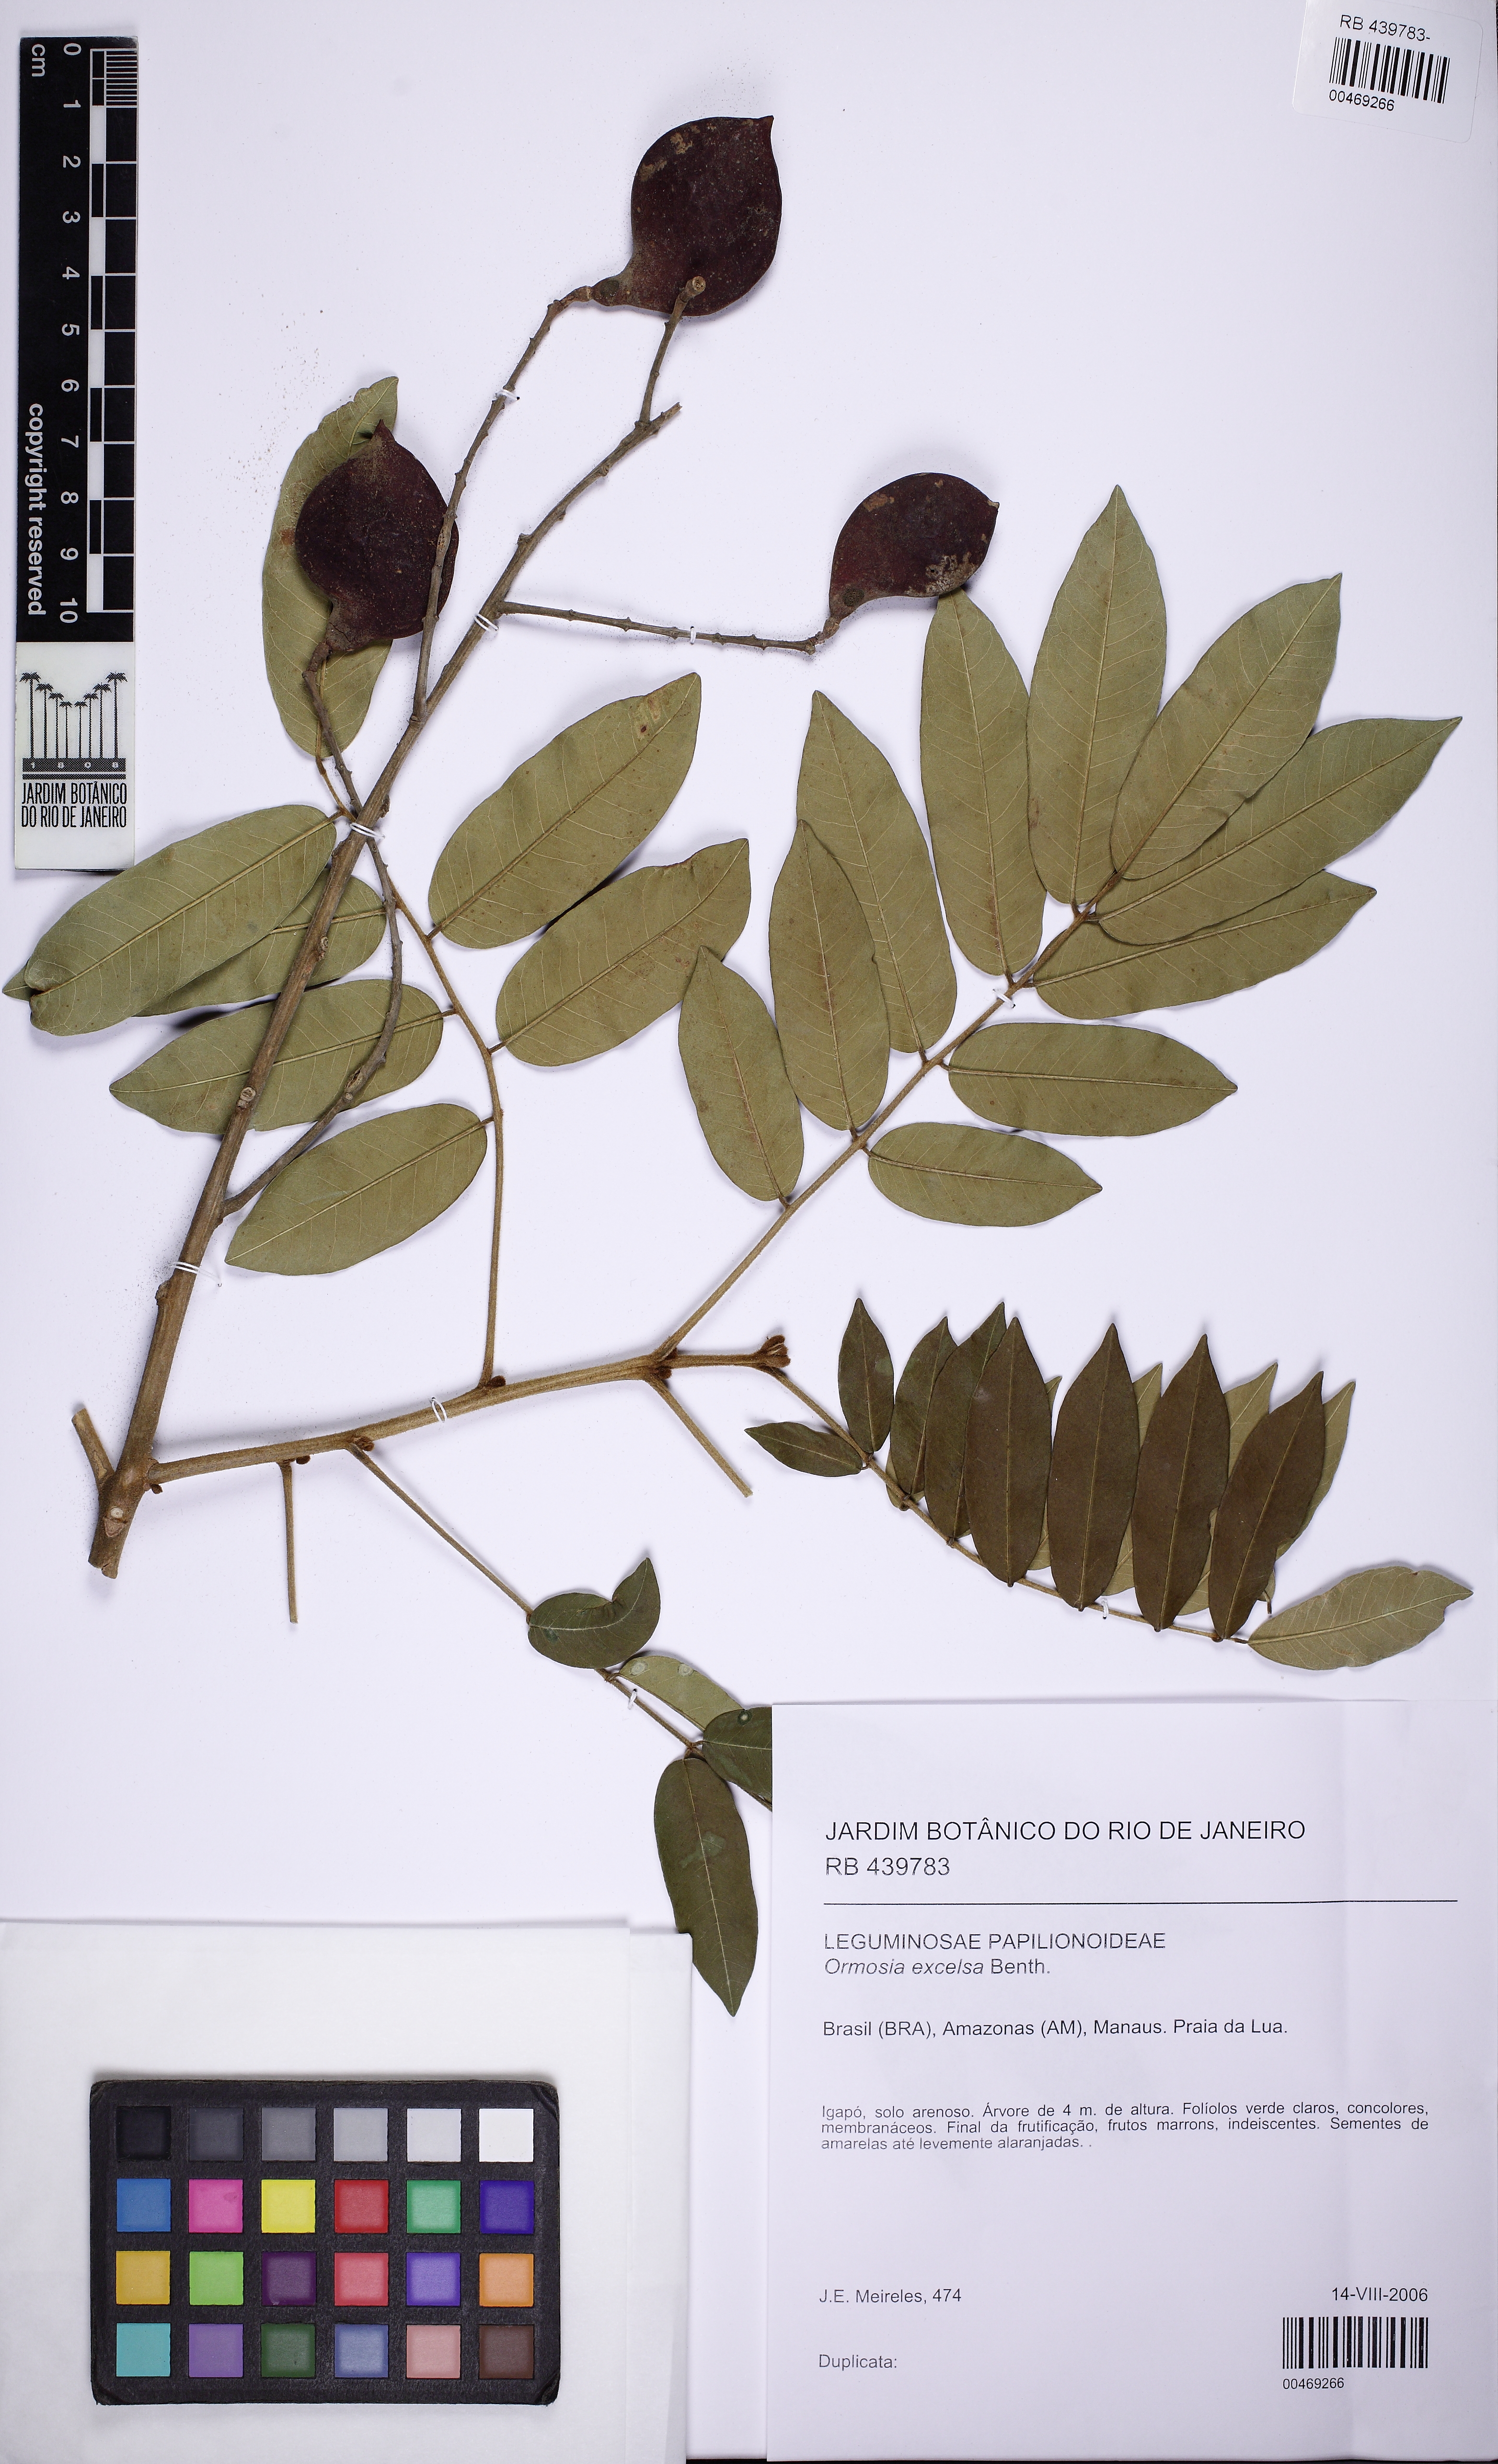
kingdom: Plantae
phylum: Tracheophyta
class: Magnoliopsida
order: Fabales
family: Fabaceae
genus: Ormosia
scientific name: Ormosia excelsa
